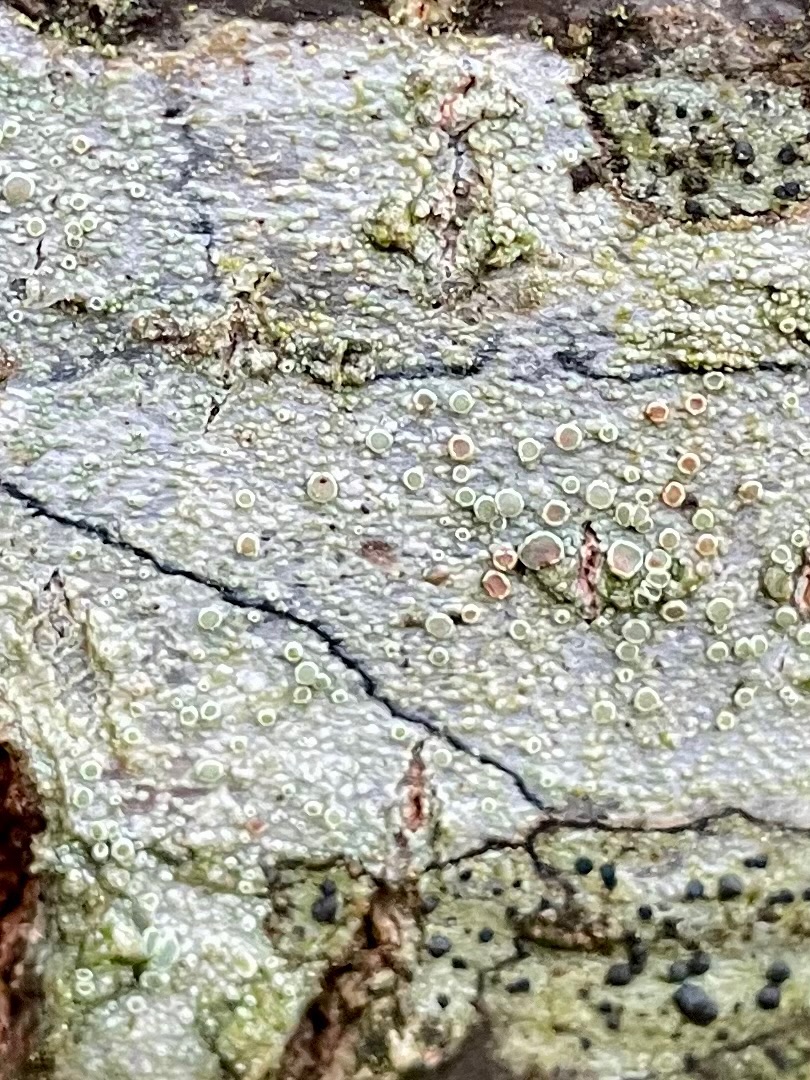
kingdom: Fungi
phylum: Ascomycota
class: Lecanoromycetes
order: Lecanorales
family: Lecanoraceae
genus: Lecanora
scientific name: Lecanora chlarotera
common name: Brun kantskivelav
